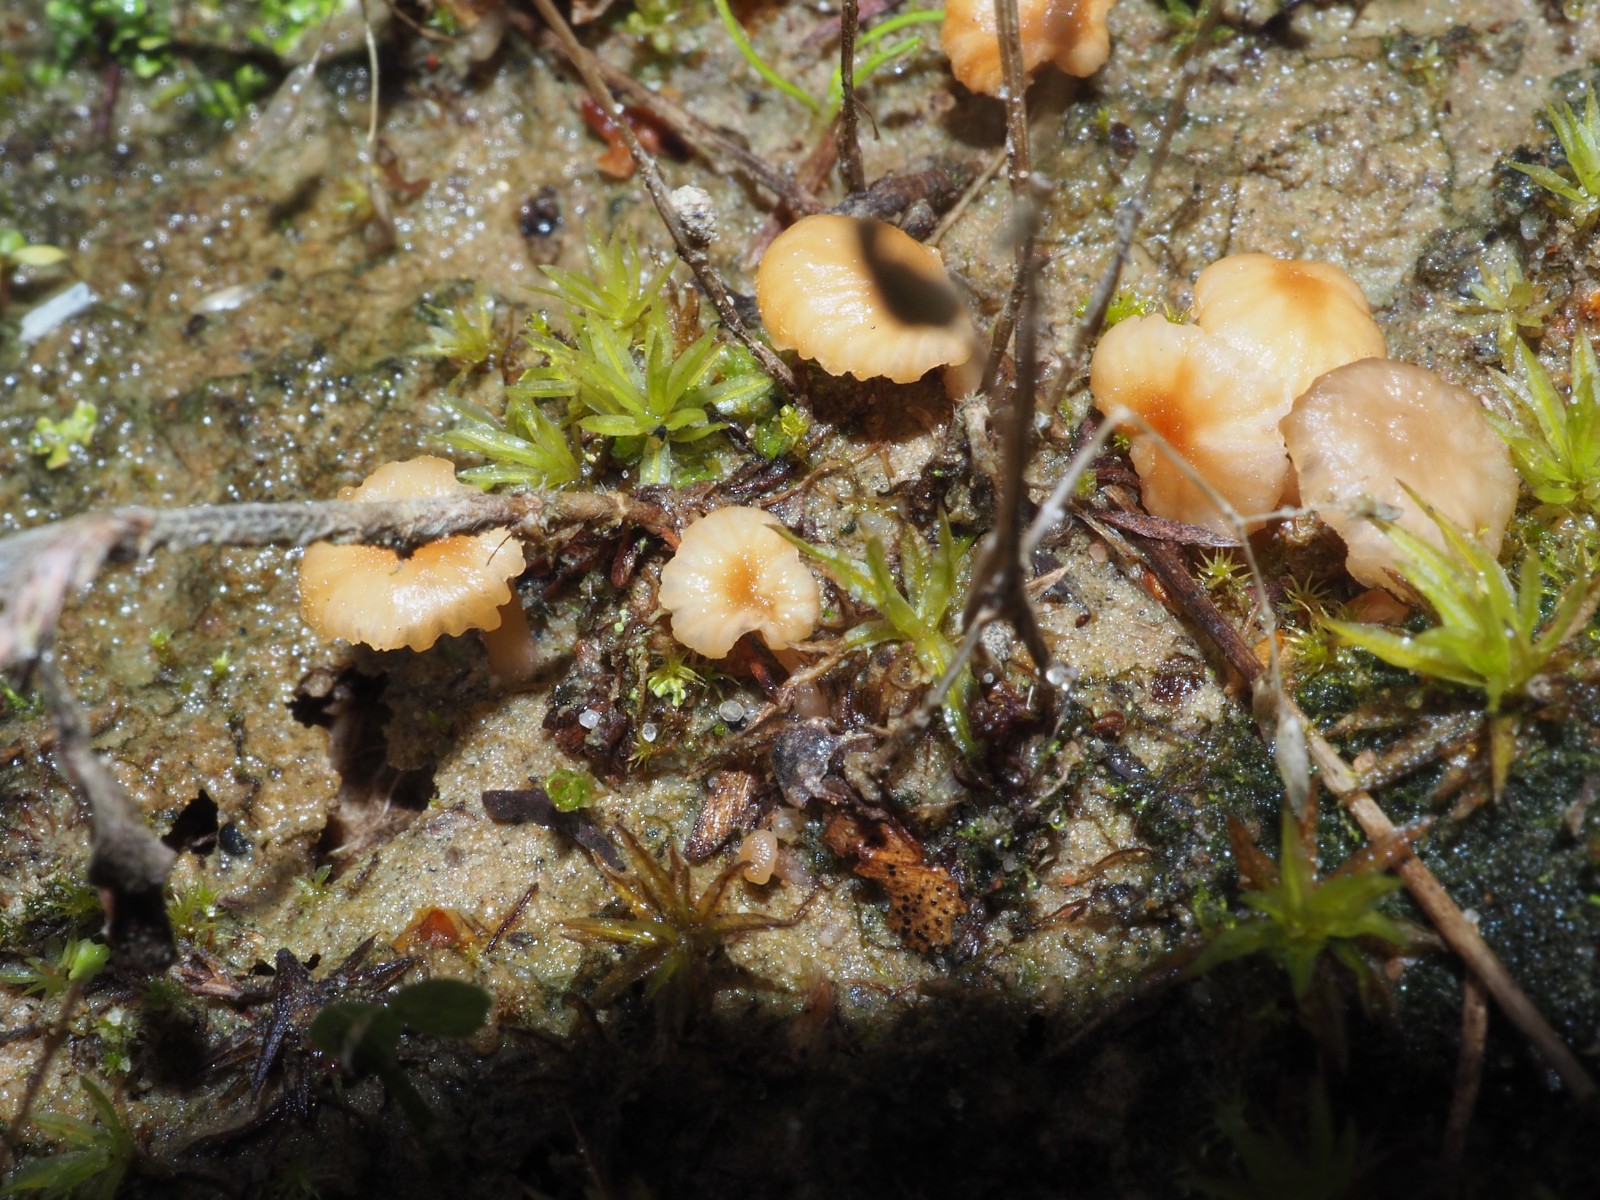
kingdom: Fungi
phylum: Basidiomycota
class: Agaricomycetes
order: Agaricales
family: Hydnangiaceae
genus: Laccaria
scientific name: Laccaria tortilis
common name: krybende ametysthat
